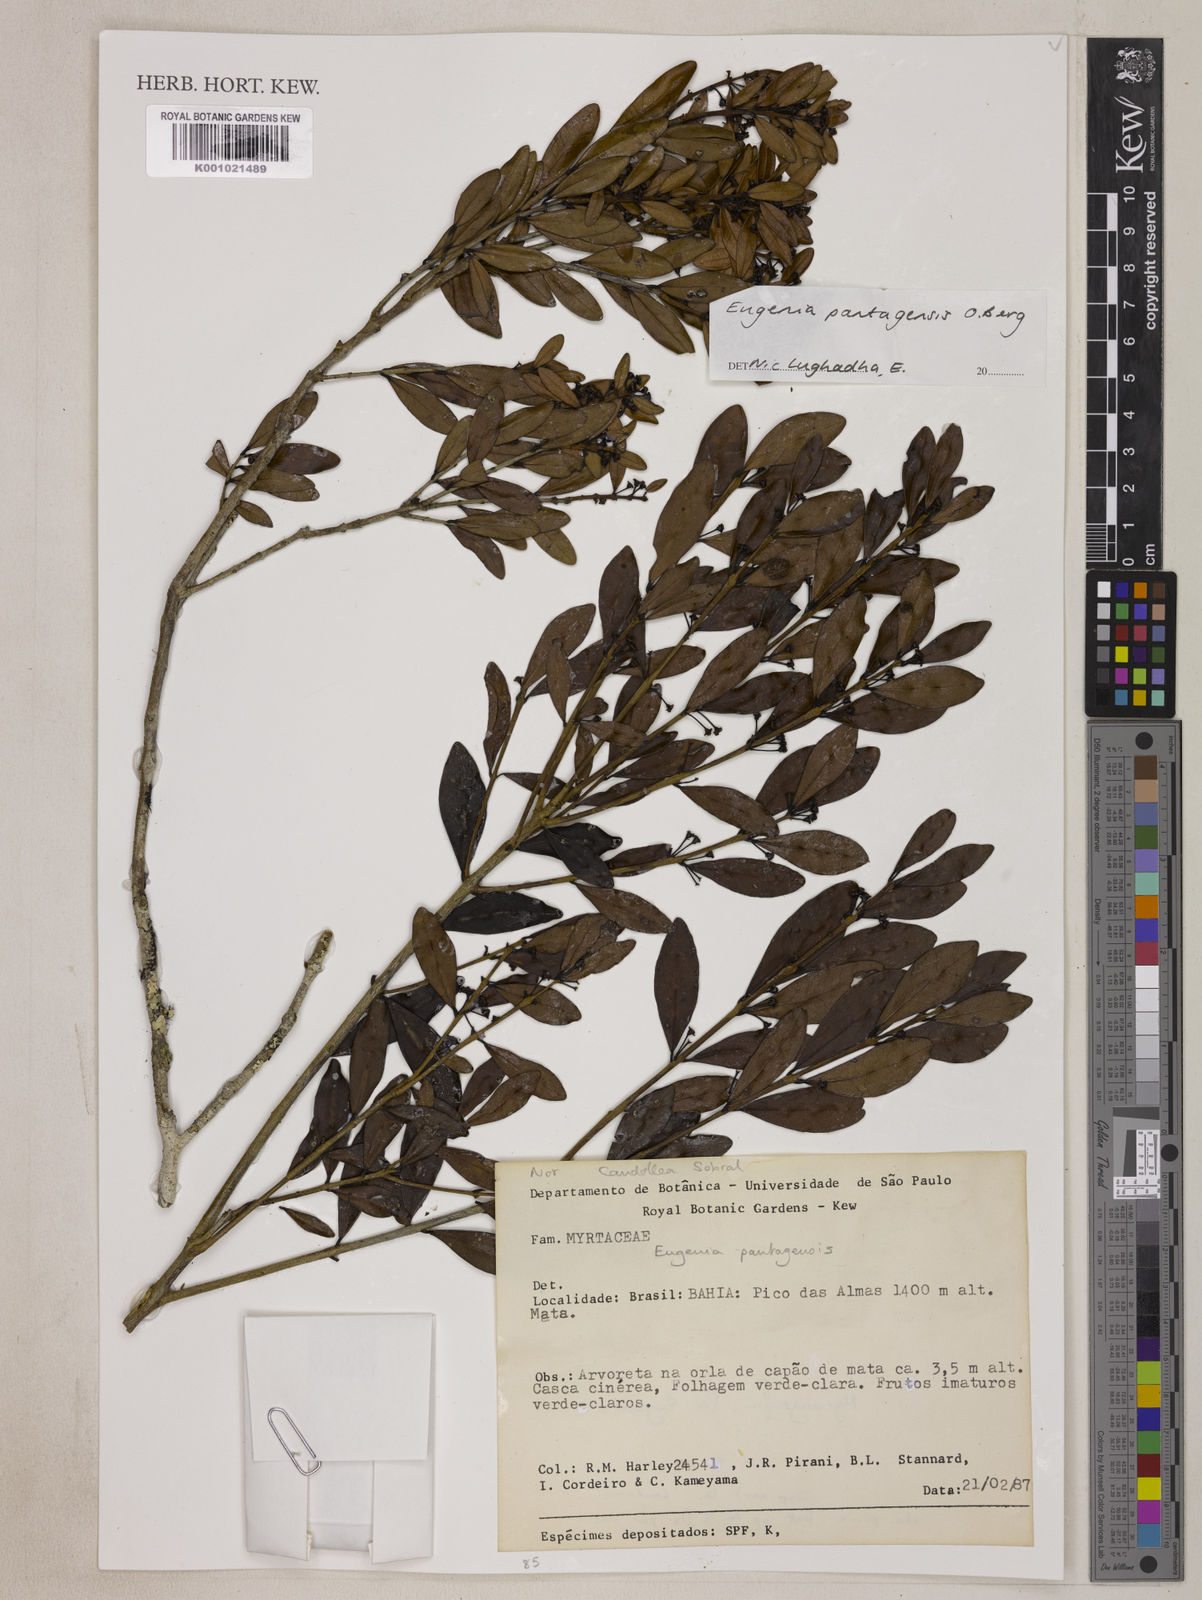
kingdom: Plantae
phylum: Tracheophyta
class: Magnoliopsida
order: Myrtales
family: Myrtaceae
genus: Eugenia
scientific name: Eugenia pantagensis
